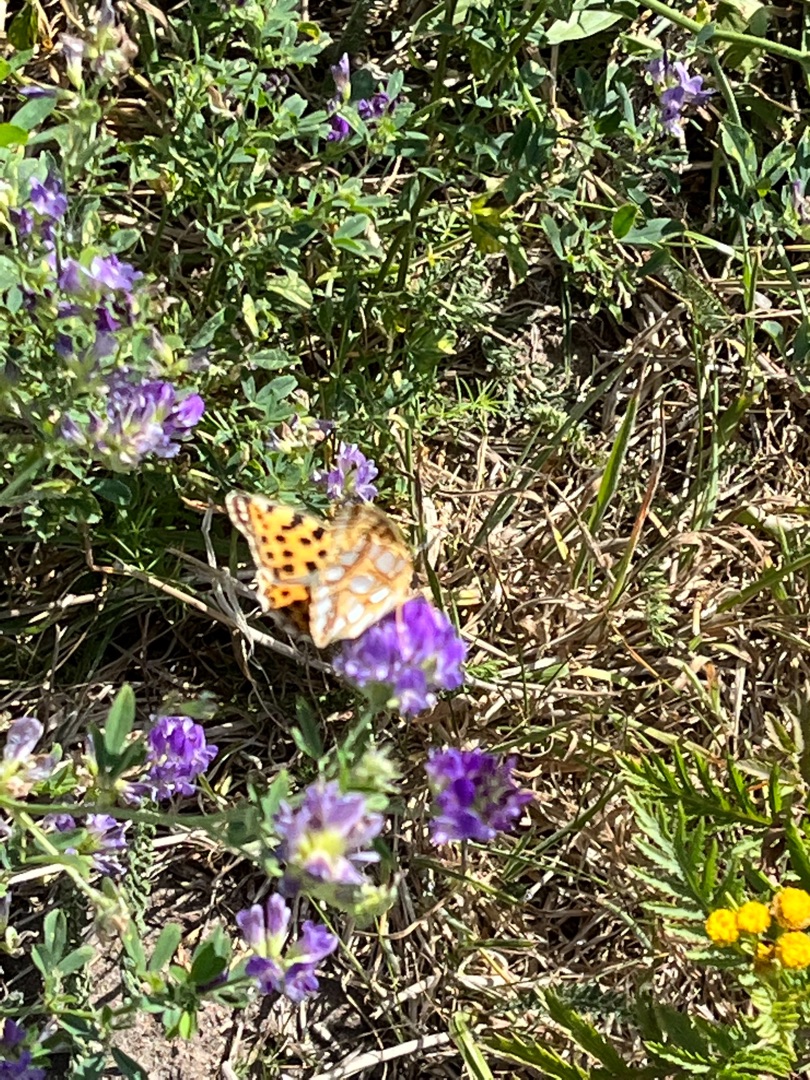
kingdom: Animalia
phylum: Arthropoda
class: Insecta
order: Lepidoptera
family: Nymphalidae
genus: Issoria
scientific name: Issoria lathonia
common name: Storplettet perlemorsommerfugl
